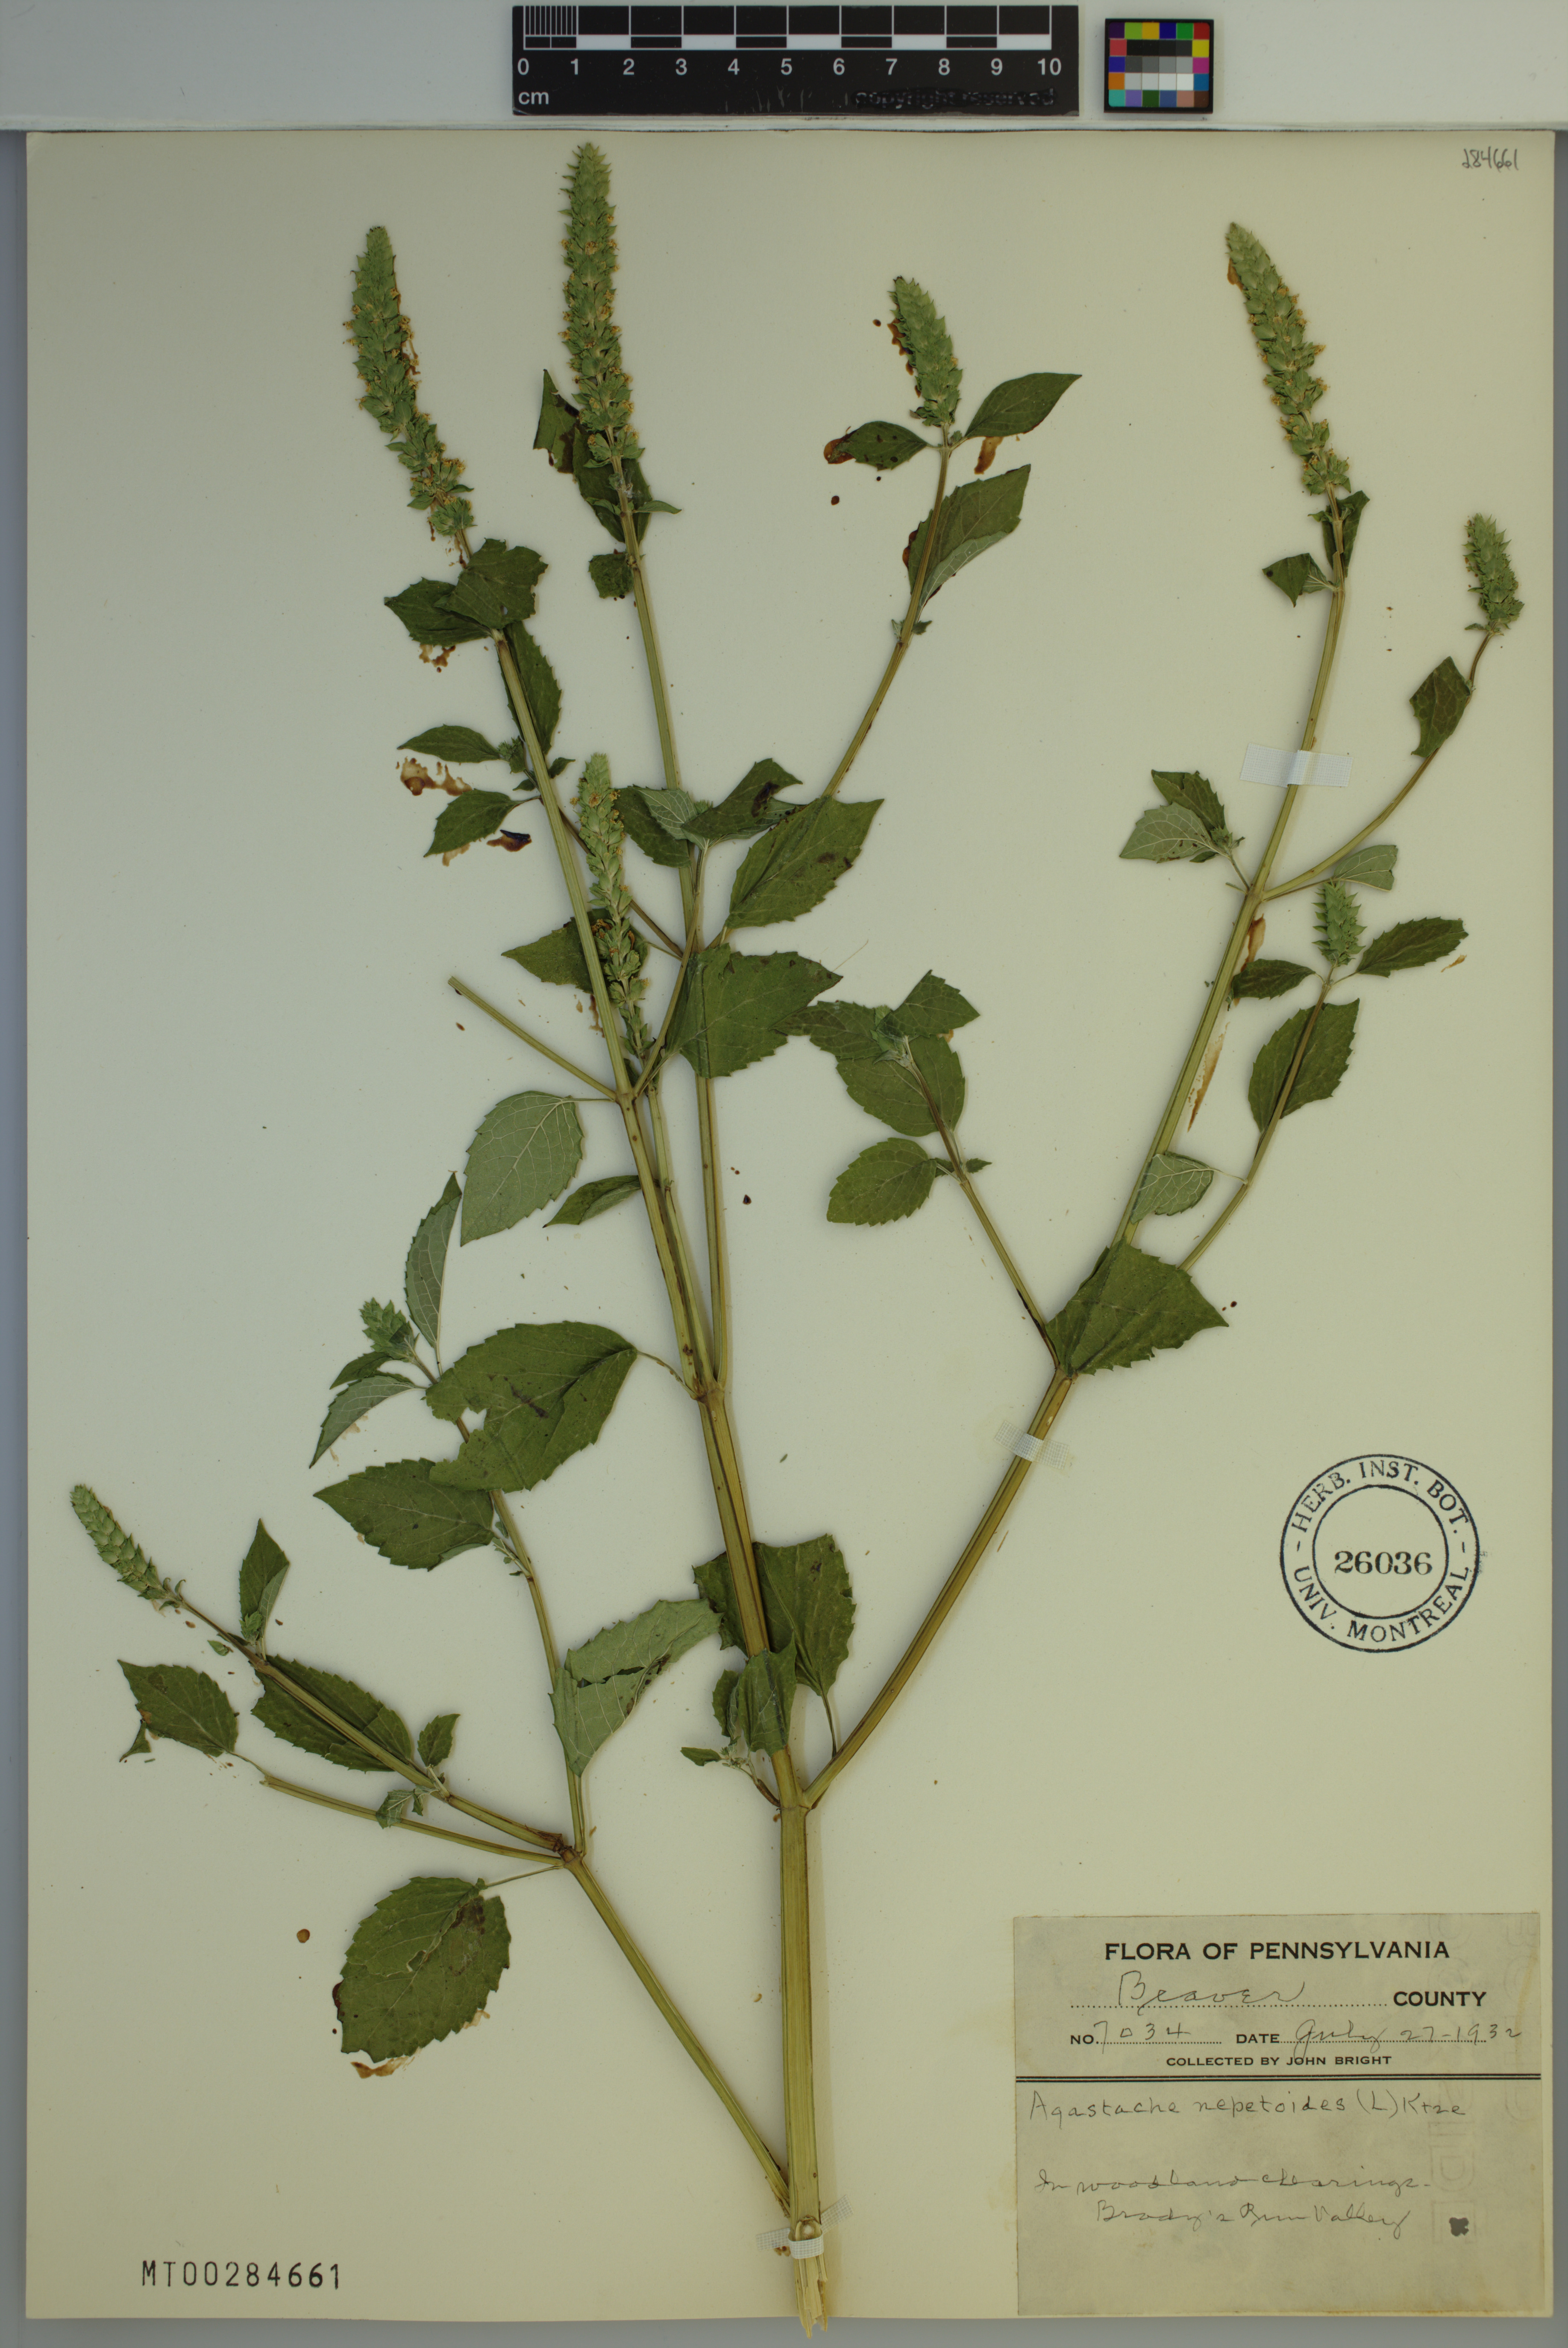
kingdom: Plantae
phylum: Tracheophyta
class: Magnoliopsida
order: Lamiales
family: Lamiaceae
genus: Agastache
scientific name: Agastache nepetoides
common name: Catnip giant hyssop
